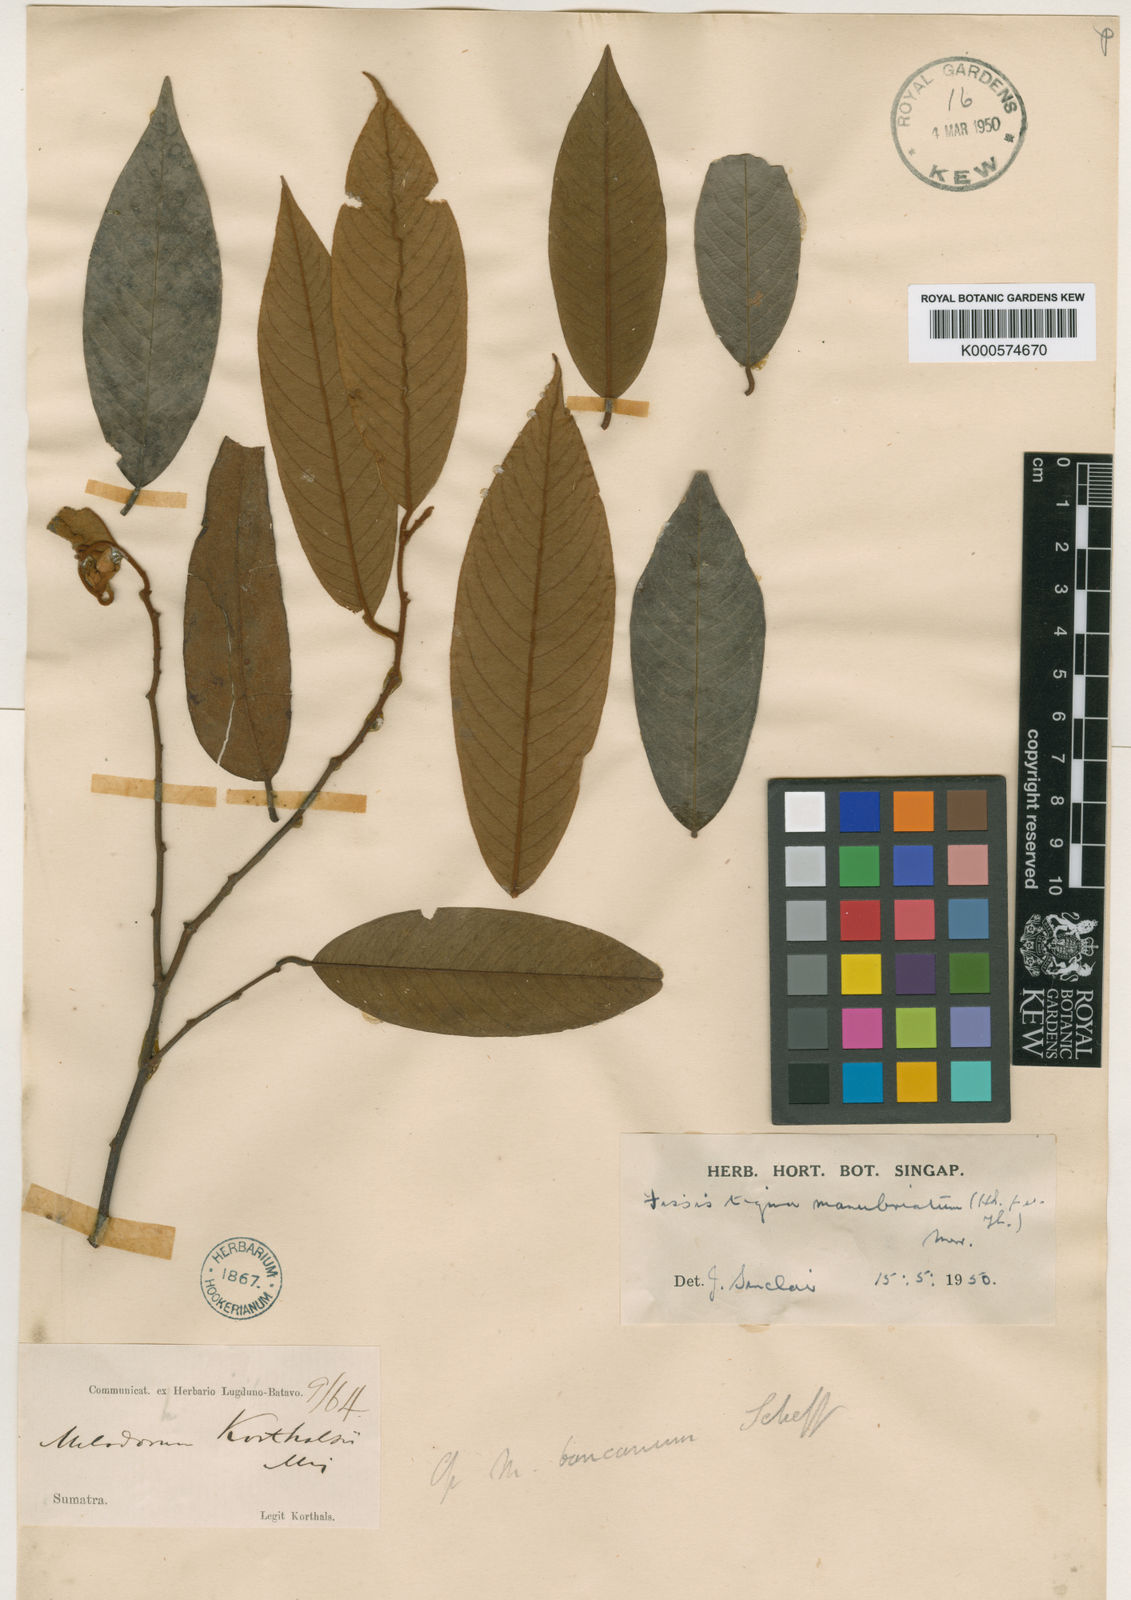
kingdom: Plantae
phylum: Tracheophyta
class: Magnoliopsida
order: Magnoliales
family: Annonaceae
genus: Fissistigma
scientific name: Fissistigma manubriatum
